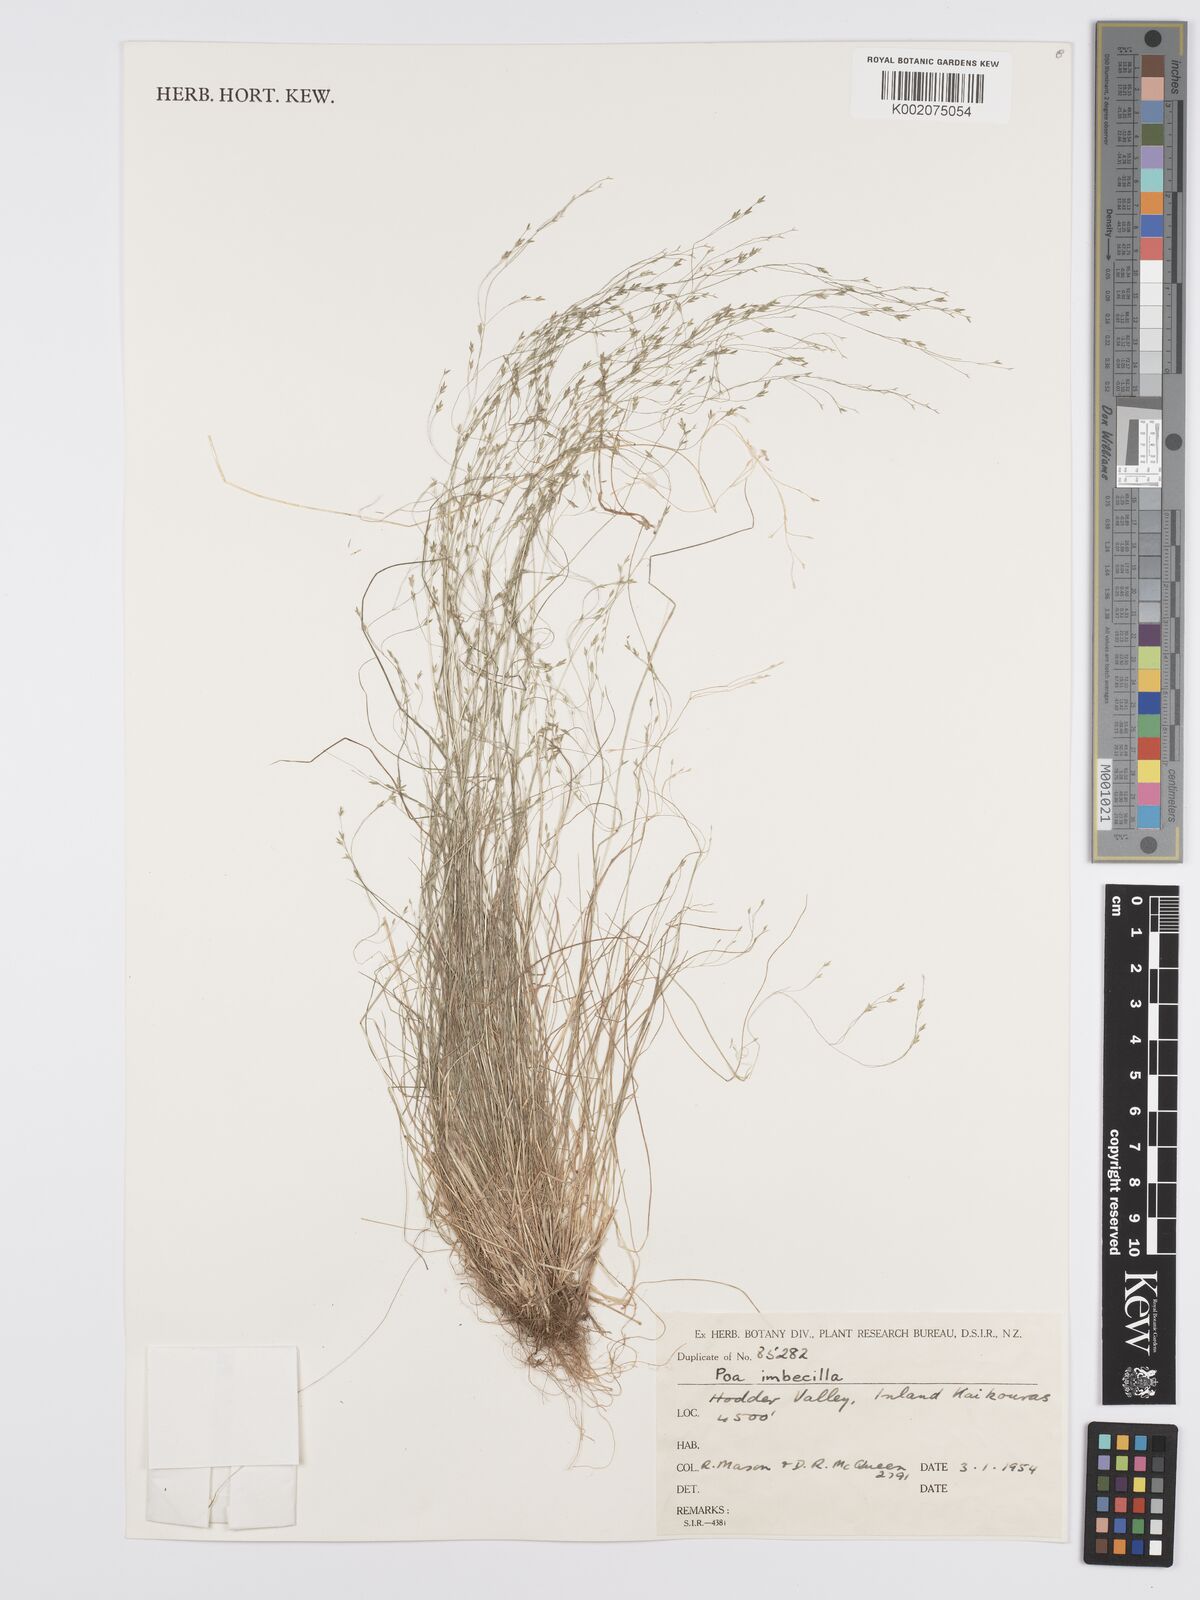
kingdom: Plantae
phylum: Tracheophyta
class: Liliopsida
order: Poales
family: Poaceae
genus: Poa
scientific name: Poa imbecilla
